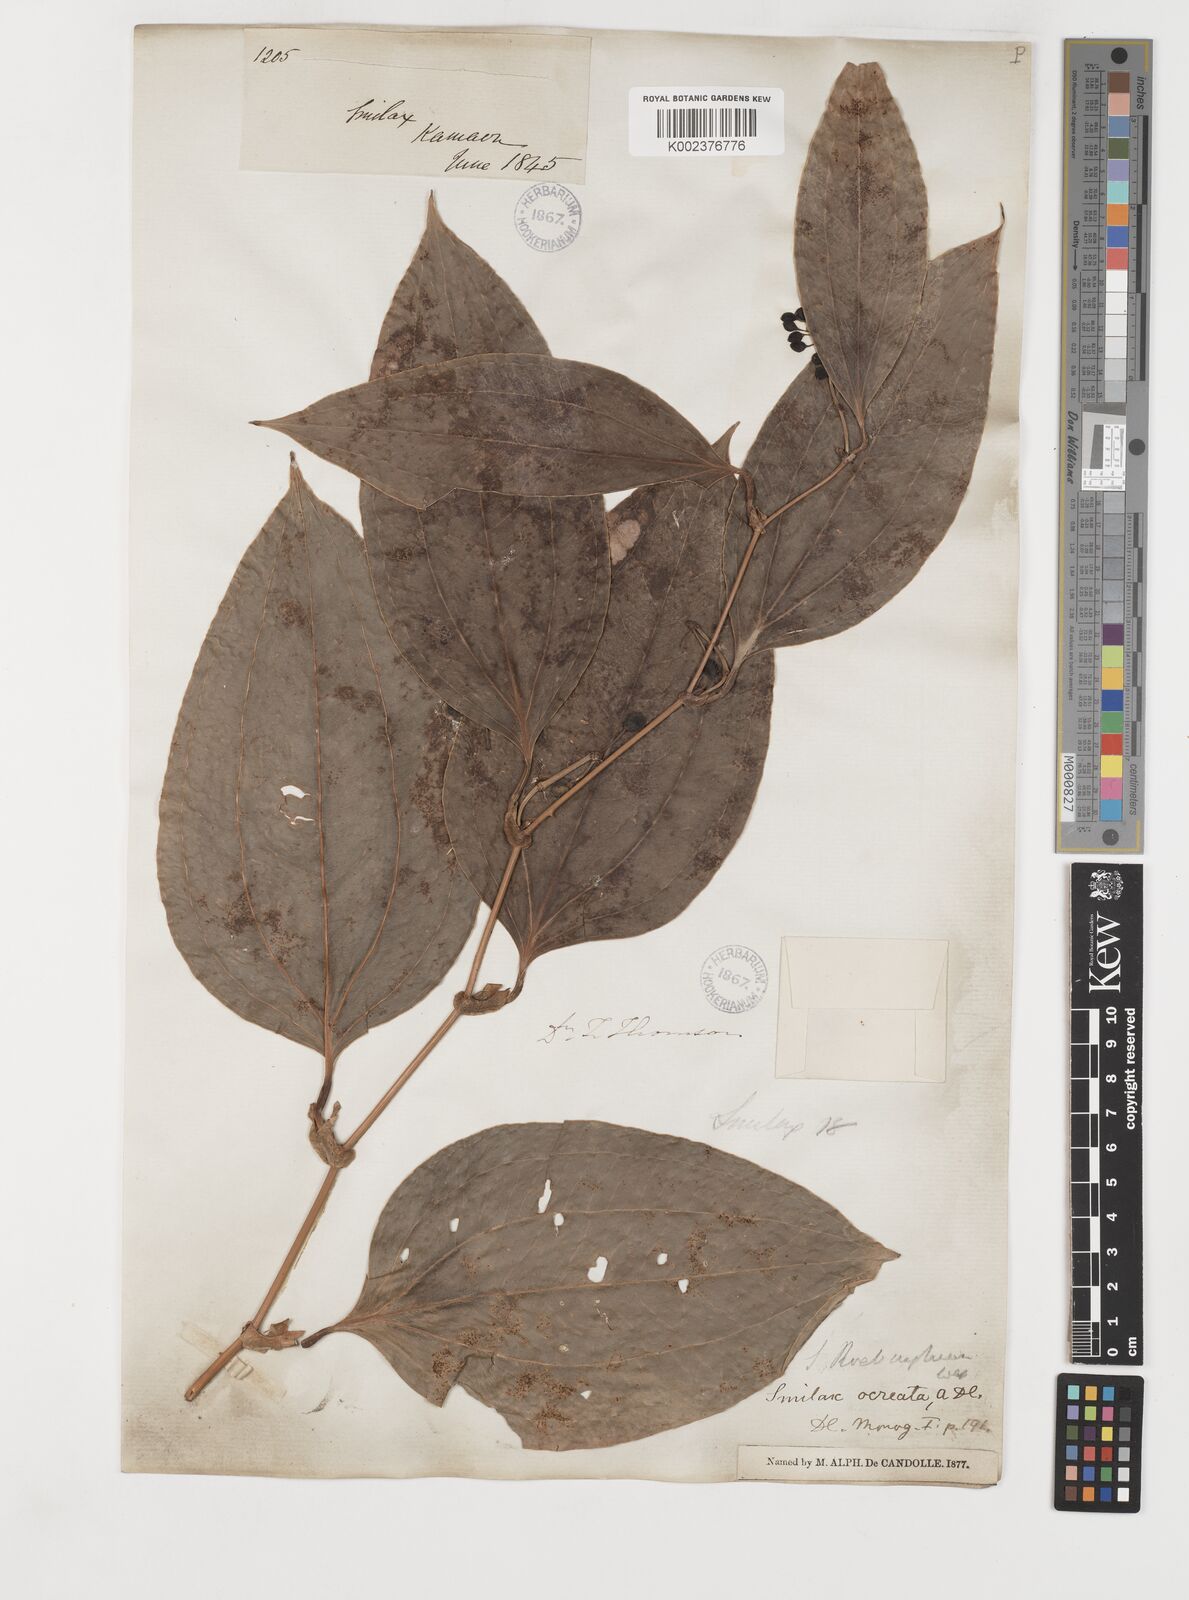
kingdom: Plantae
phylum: Tracheophyta
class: Liliopsida
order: Liliales
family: Smilacaceae
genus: Smilax
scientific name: Smilax ocreata
